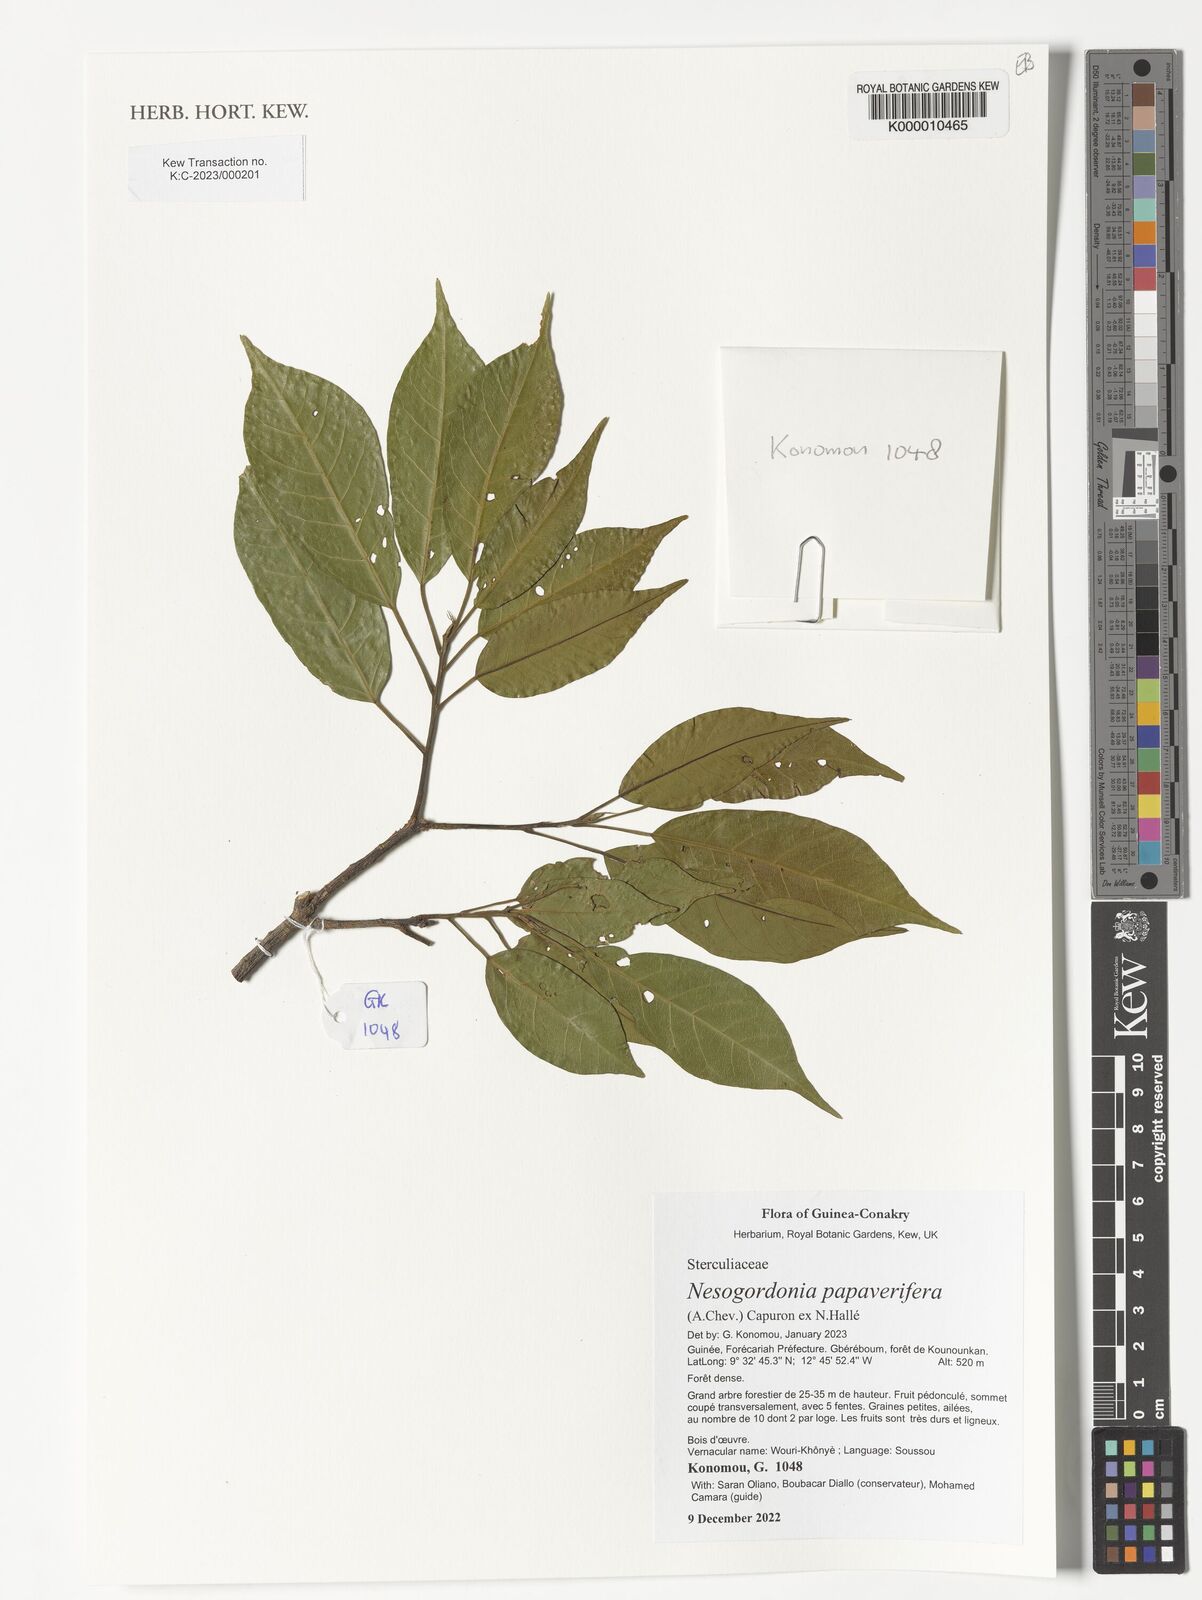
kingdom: Plantae
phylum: Tracheophyta
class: Magnoliopsida
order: Malvales
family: Malvaceae
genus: Nesogordonia
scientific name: Nesogordonia papaverifera
